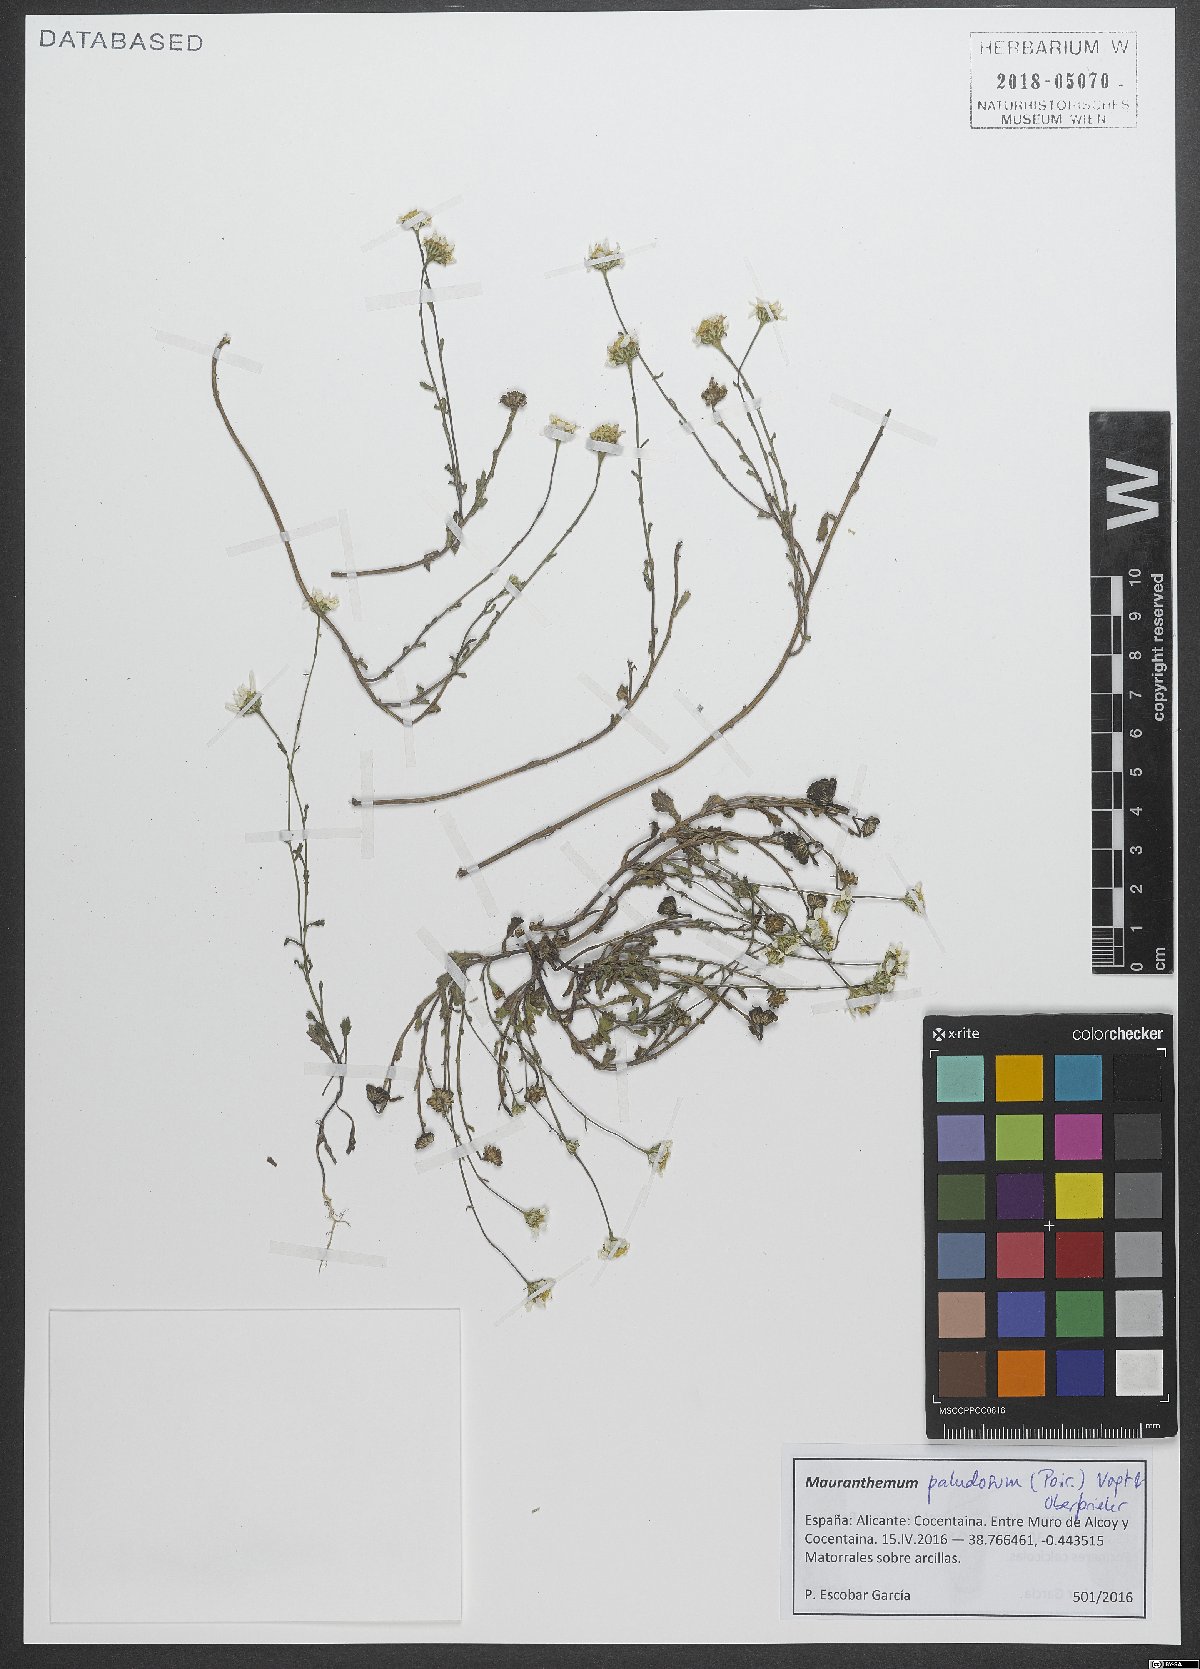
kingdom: Plantae
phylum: Tracheophyta
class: Magnoliopsida
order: Asterales
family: Asteraceae
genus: Mauranthemum
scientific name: Mauranthemum paludosum
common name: Sunflower
